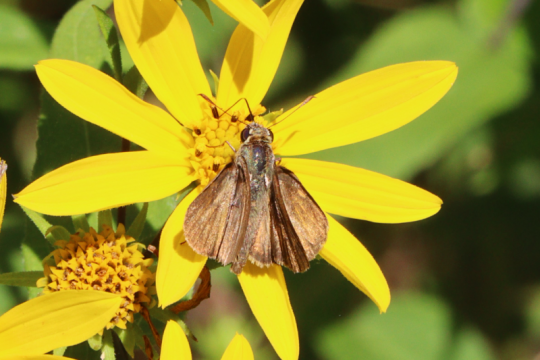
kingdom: Animalia
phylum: Arthropoda
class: Insecta
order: Lepidoptera
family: Hesperiidae
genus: Euphyes
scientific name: Euphyes vestris
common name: Dun Skipper
